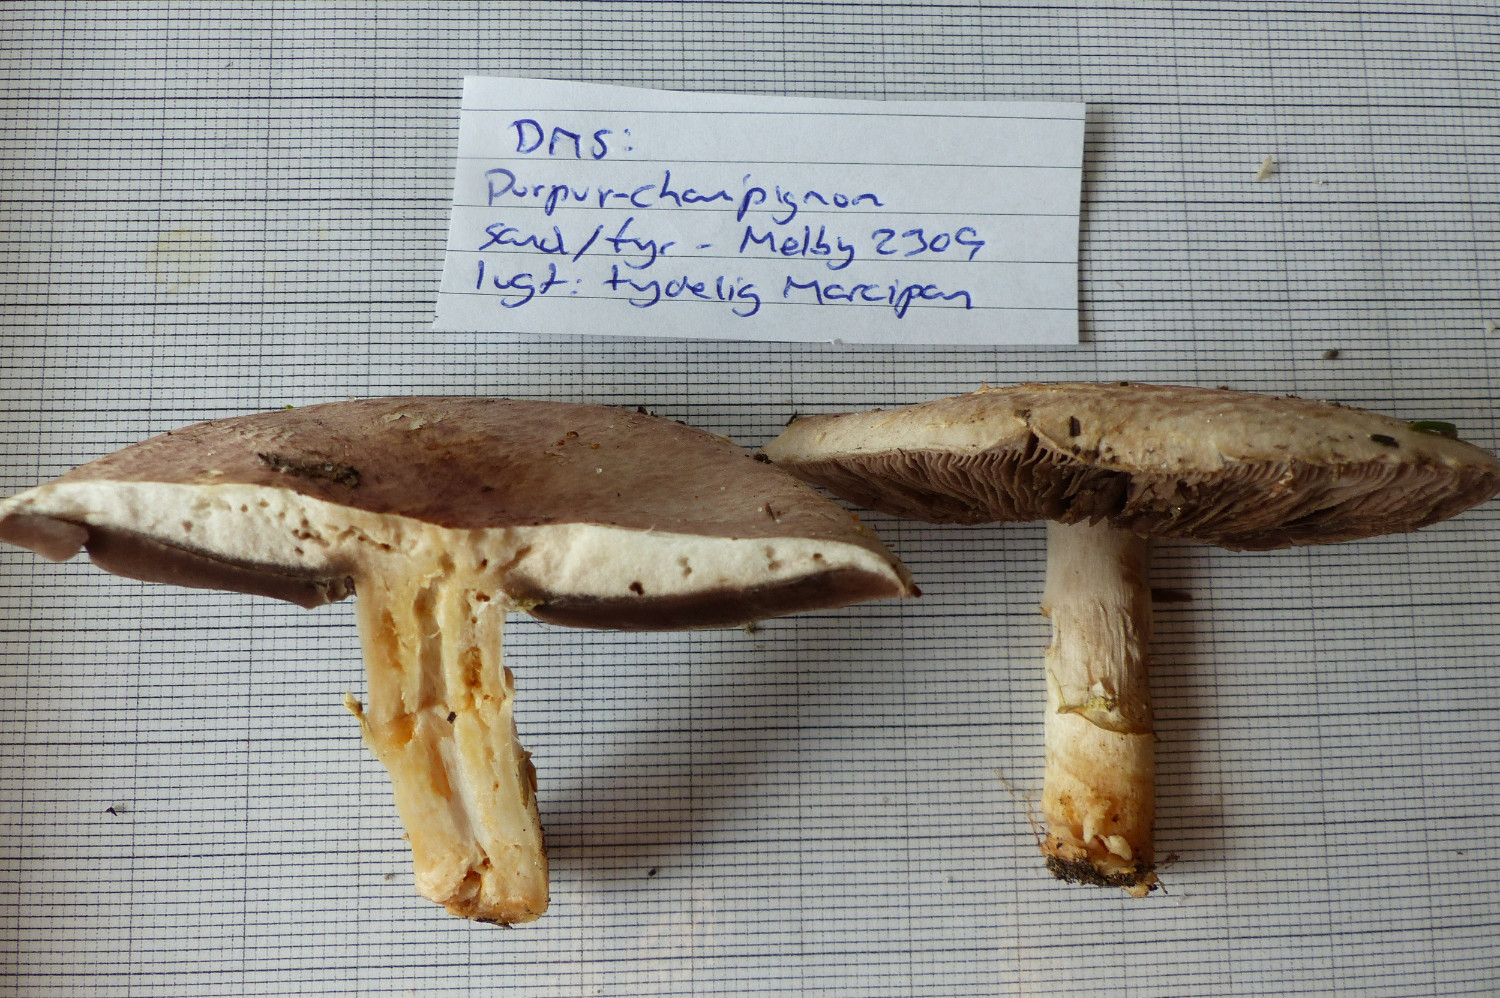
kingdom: Fungi
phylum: Basidiomycota
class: Agaricomycetes
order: Agaricales
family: Agaricaceae
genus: Agaricus
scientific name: Agaricus brunneolus
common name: purpur-champignon
